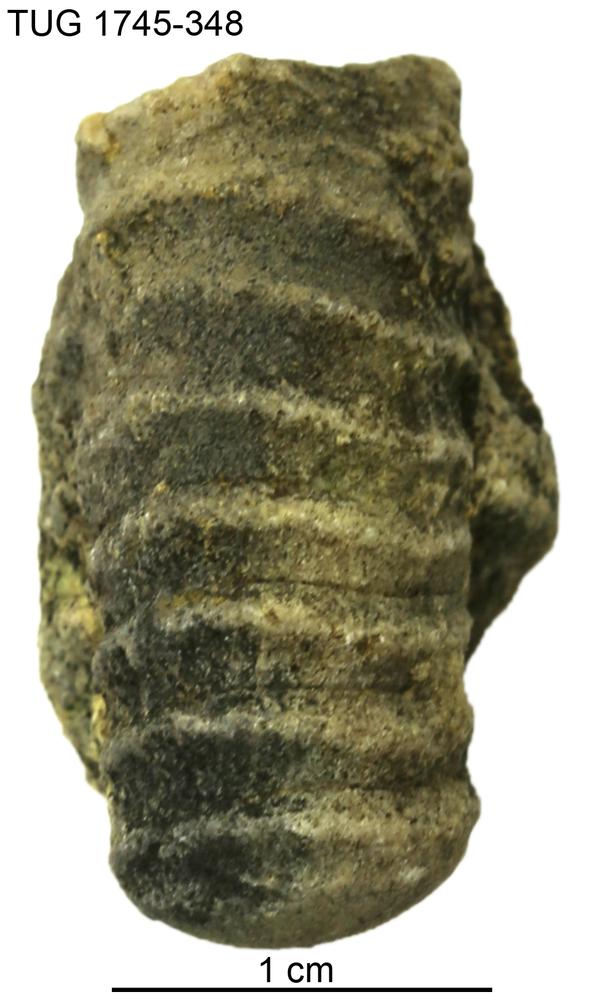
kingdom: Animalia
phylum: Mollusca
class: Cephalopoda
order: Orthocerida
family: Orthoceratidae
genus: Ctenoceras
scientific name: Ctenoceras
